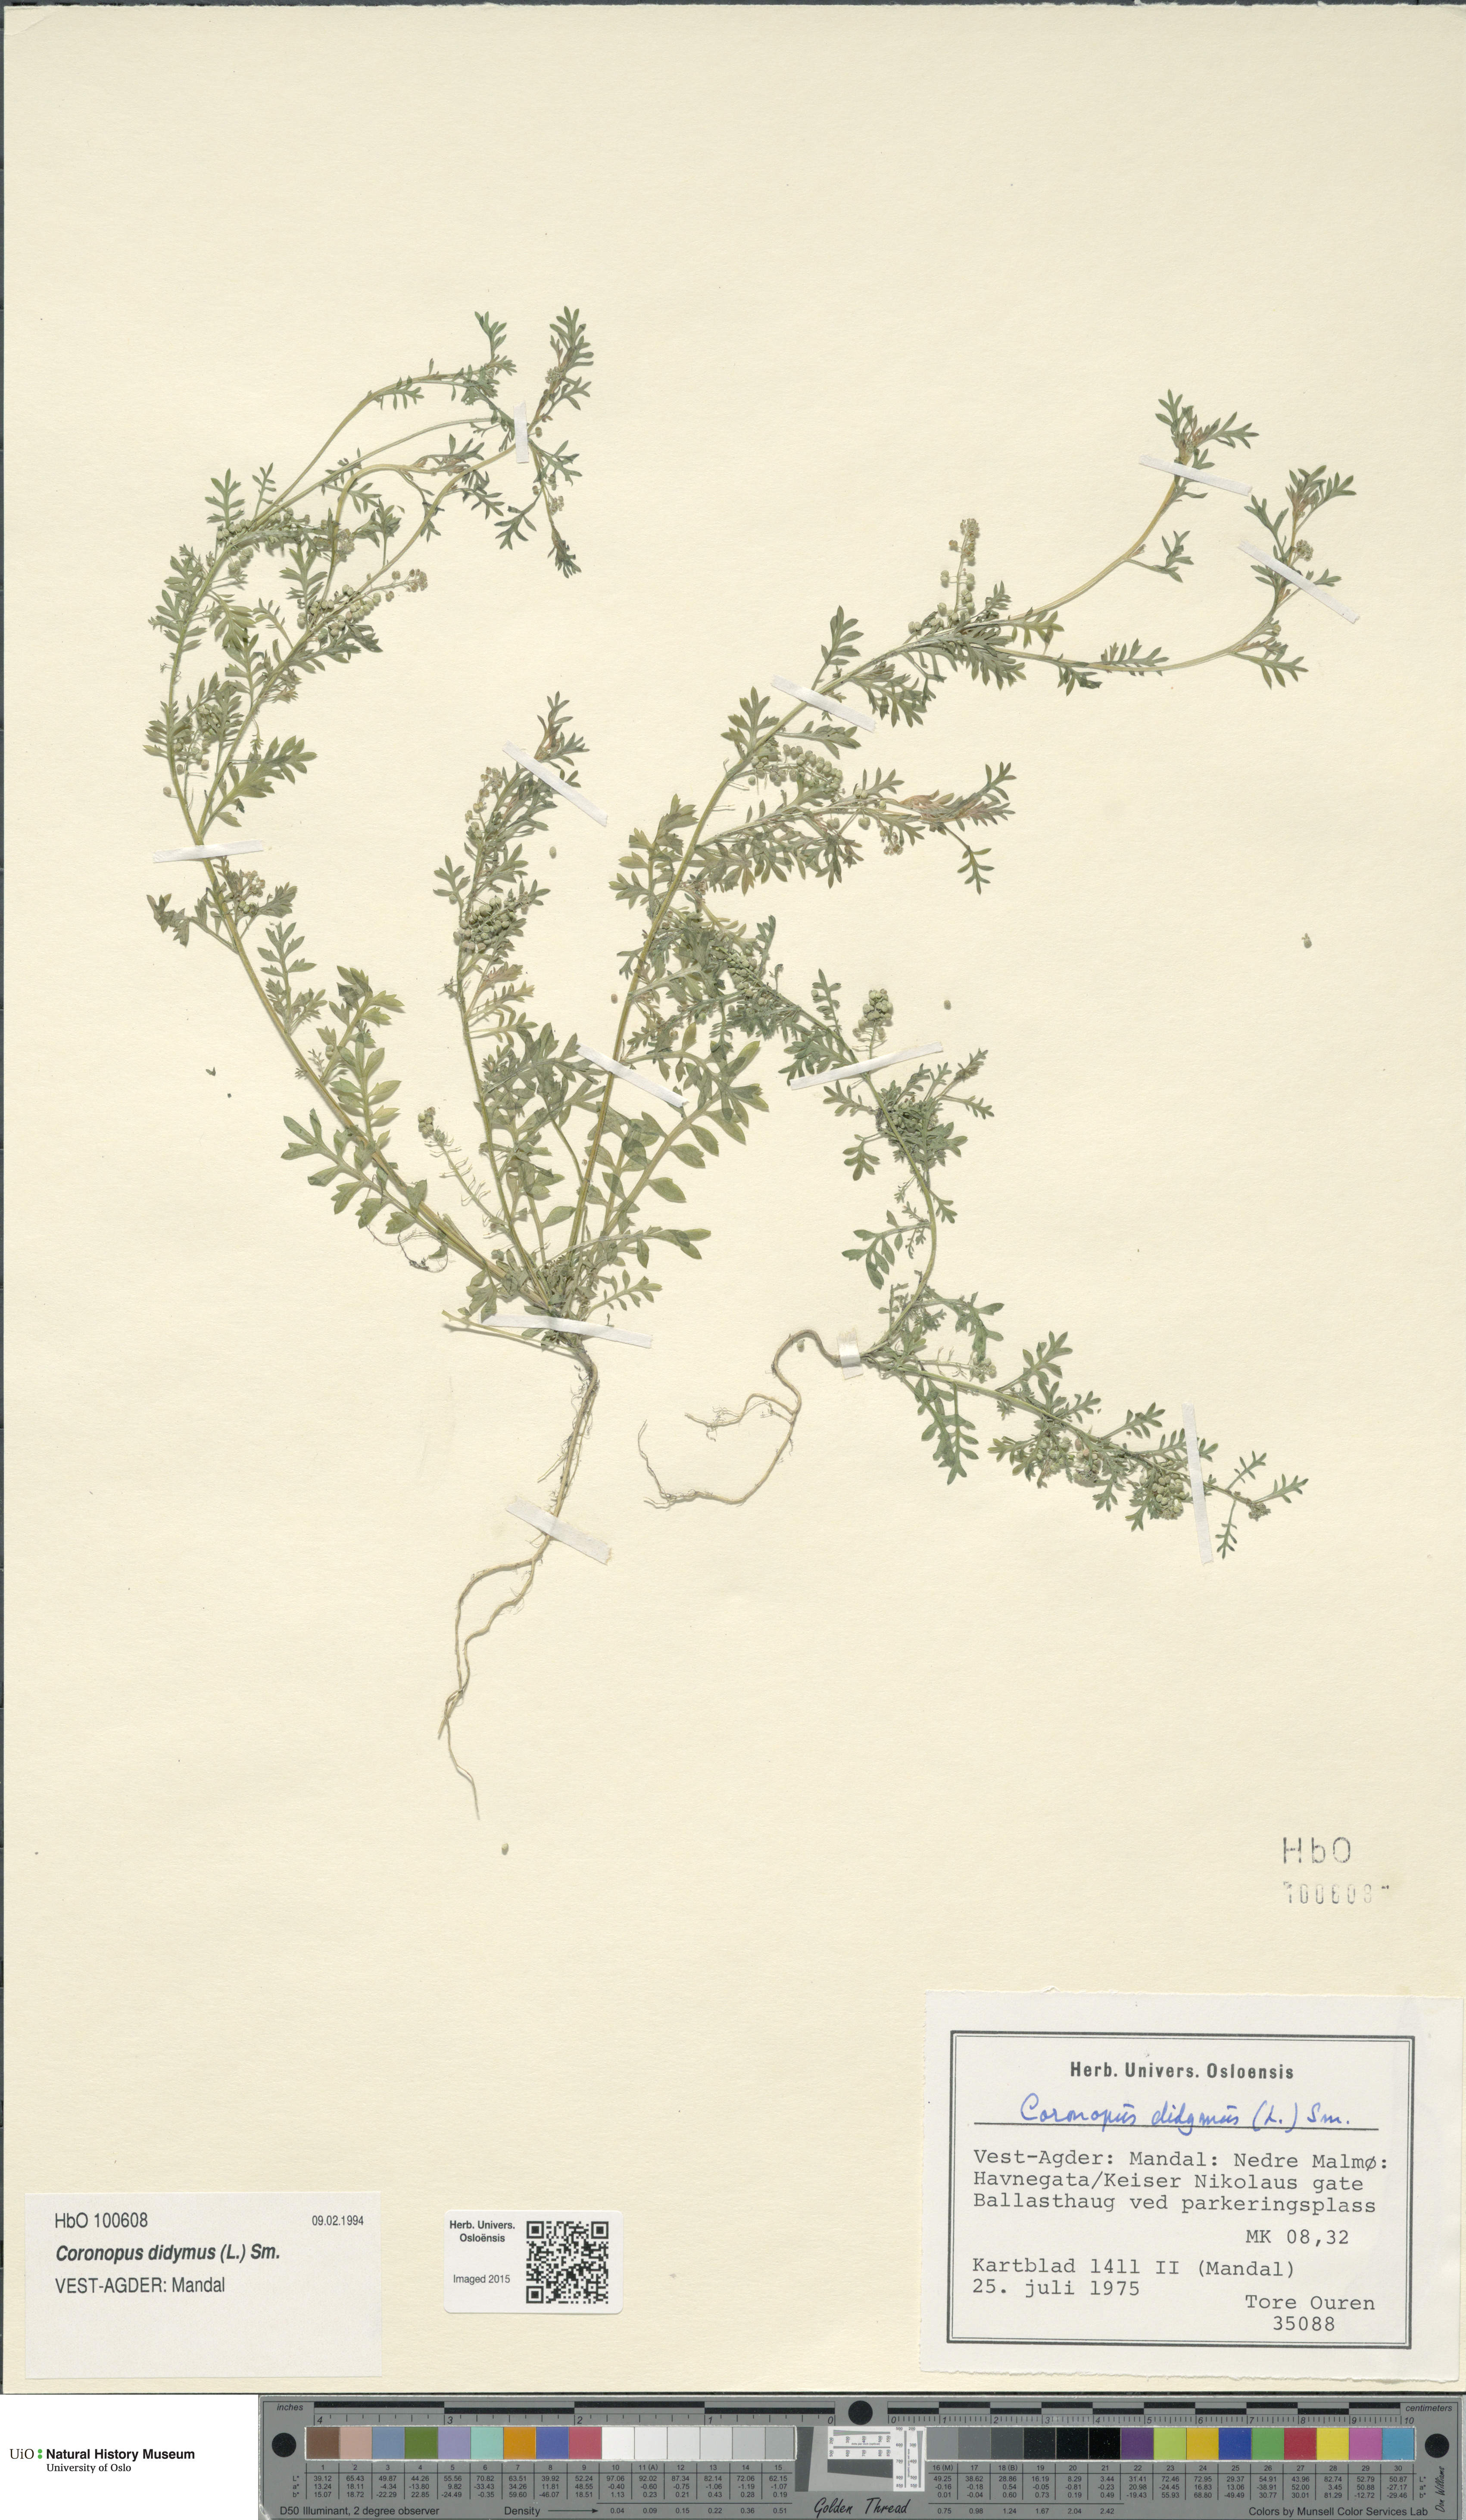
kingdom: Plantae
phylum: Tracheophyta
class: Magnoliopsida
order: Brassicales
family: Brassicaceae
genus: Lepidium
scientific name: Lepidium didymum
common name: Lesser swinecress
